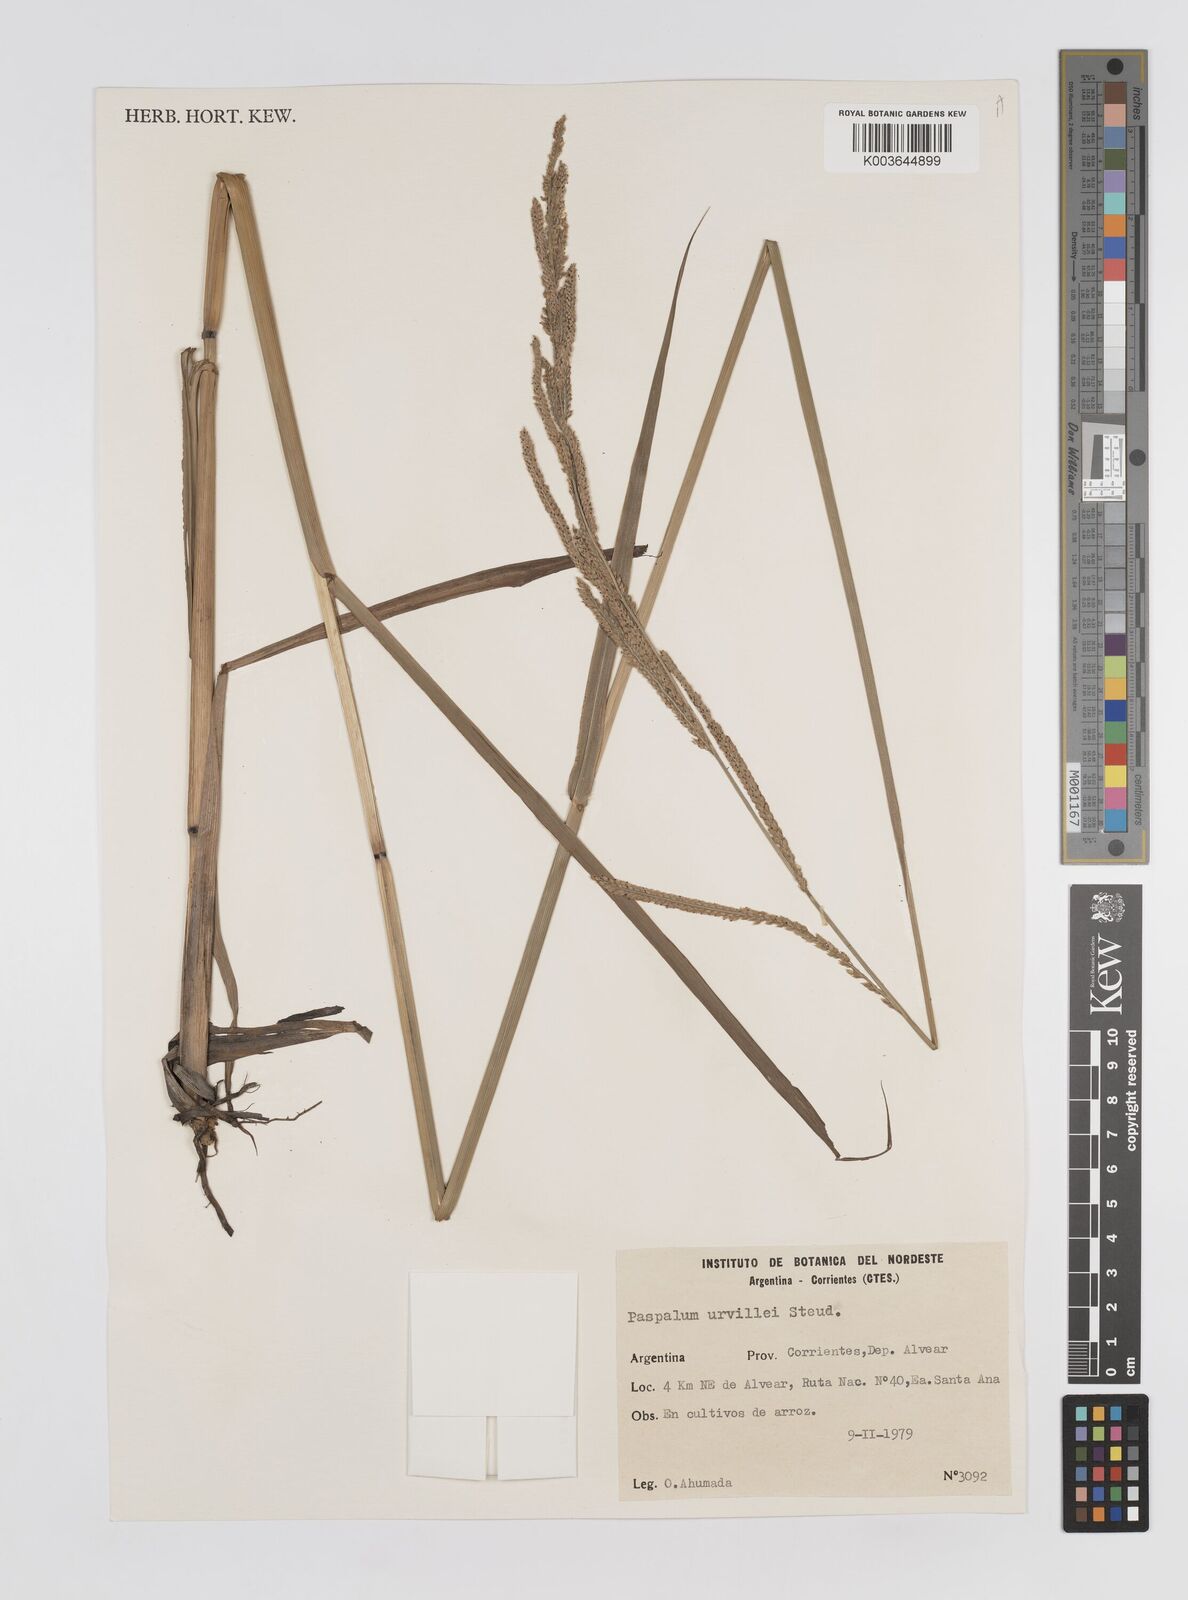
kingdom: Plantae
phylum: Tracheophyta
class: Liliopsida
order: Poales
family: Poaceae
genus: Paspalum
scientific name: Paspalum urvillei
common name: Vasey's grass
